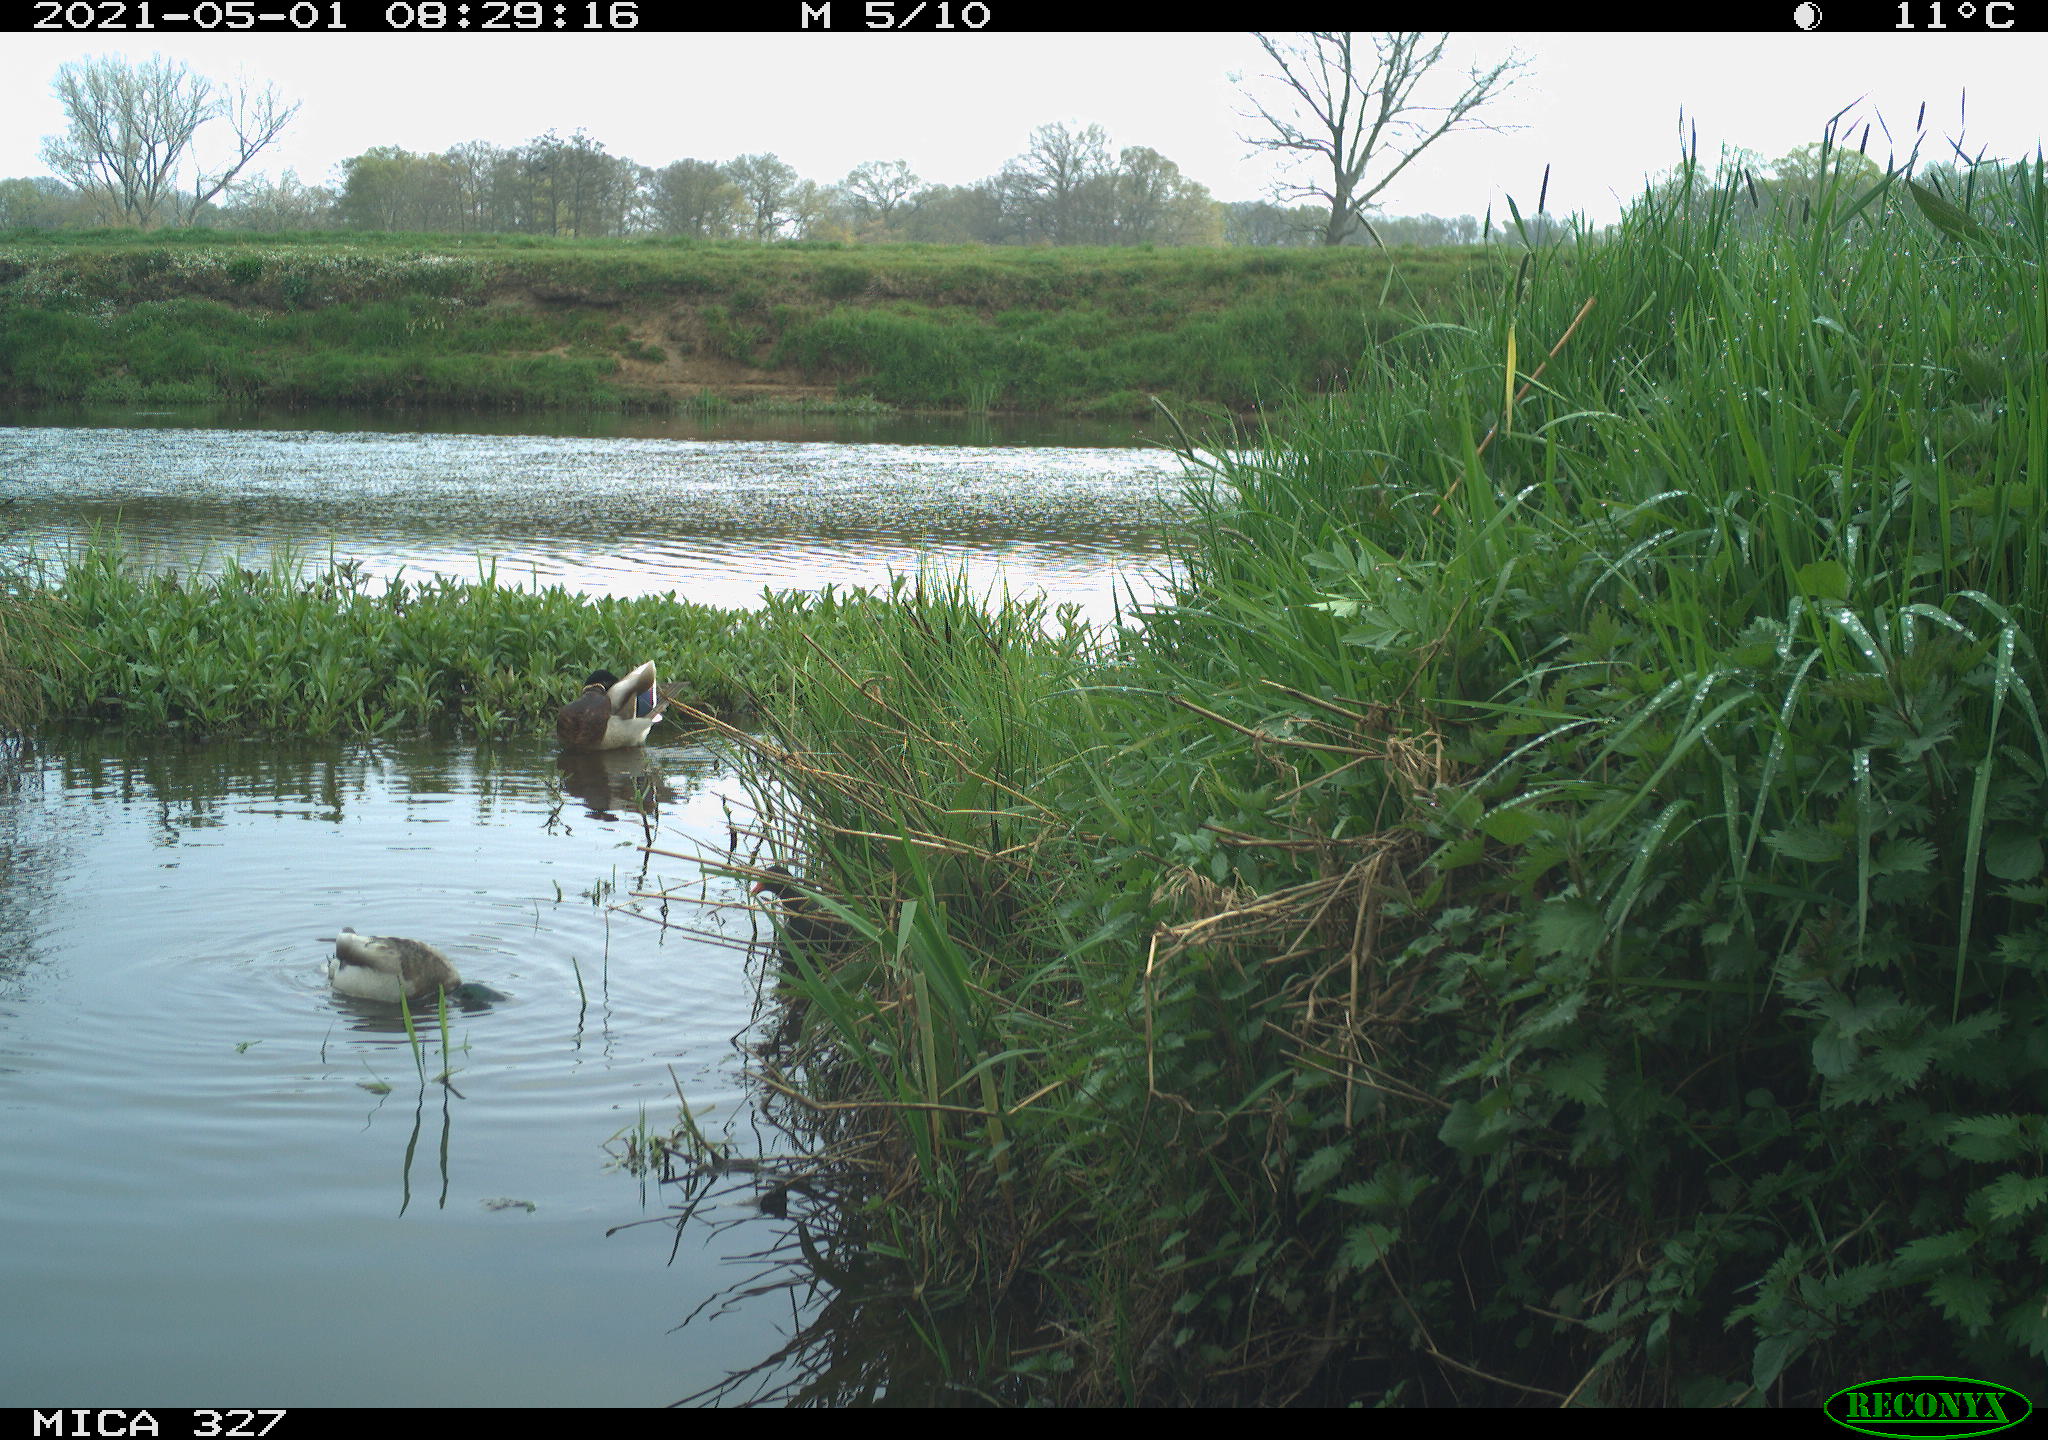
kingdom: Animalia
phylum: Chordata
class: Aves
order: Anseriformes
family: Anatidae
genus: Anas
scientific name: Anas platyrhynchos
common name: Mallard
